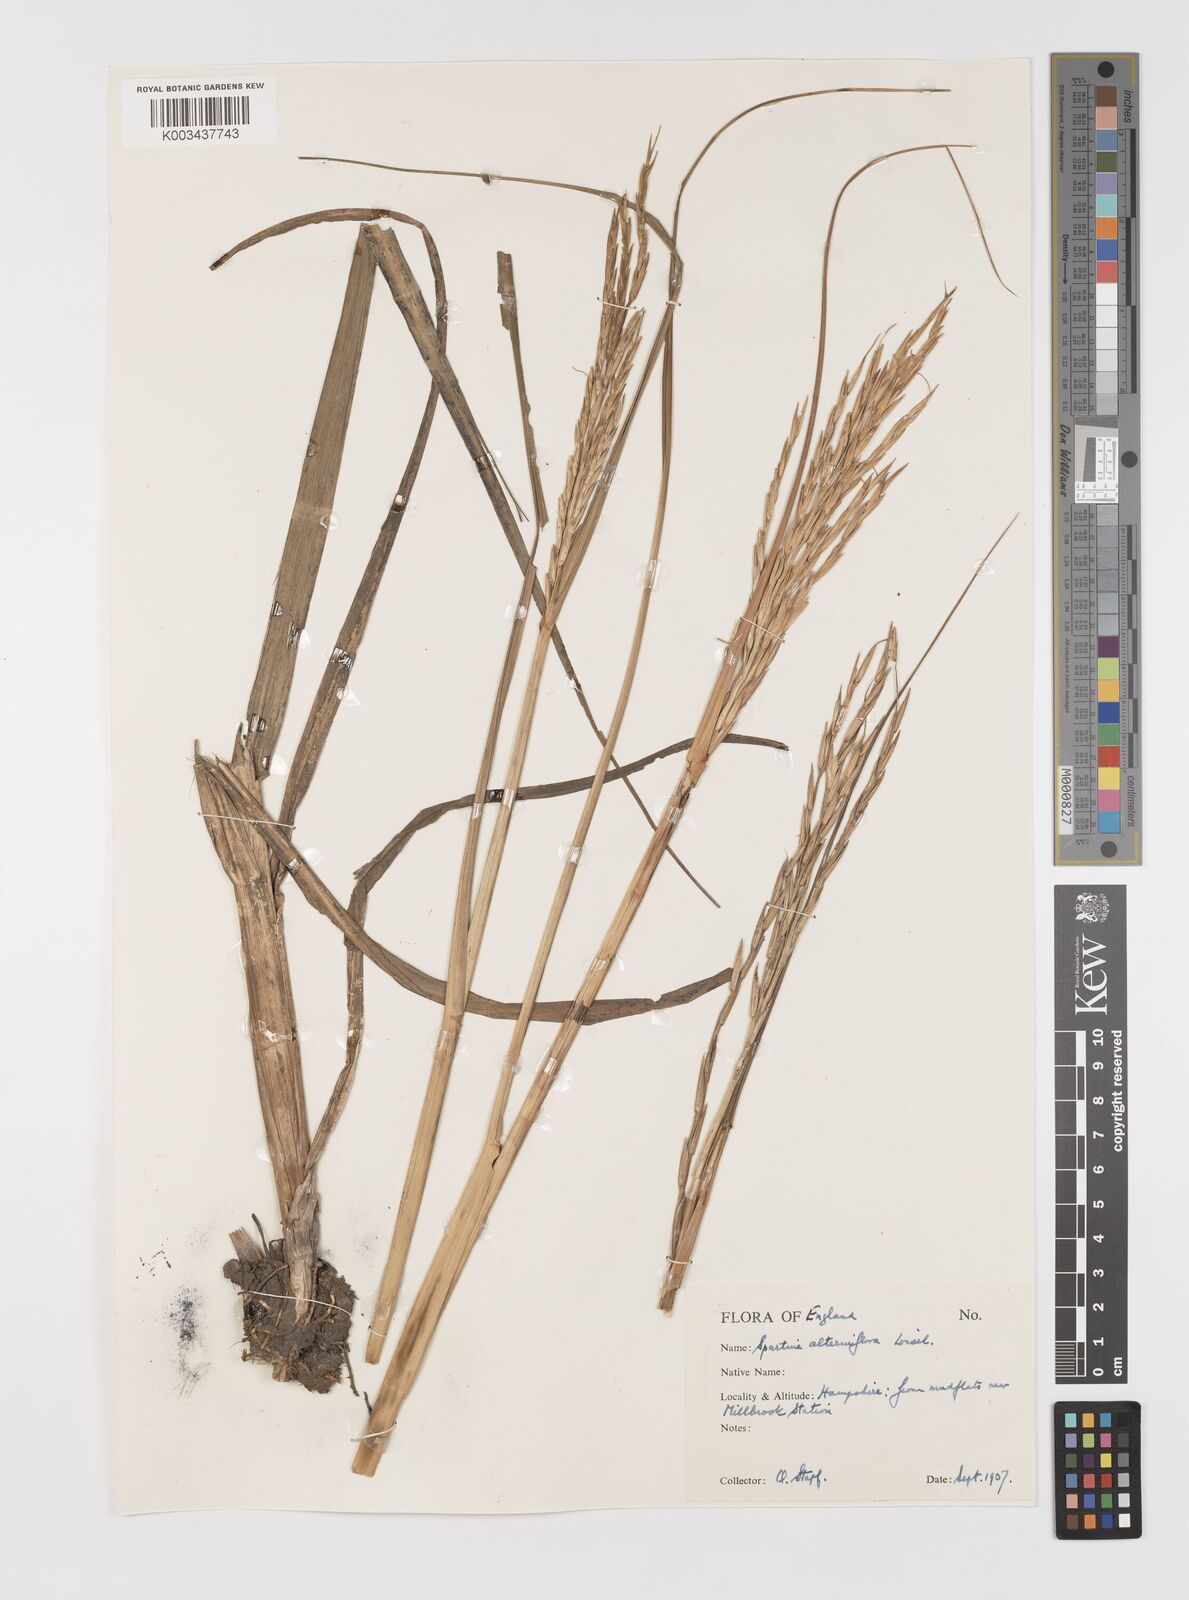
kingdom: Plantae
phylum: Tracheophyta
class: Liliopsida
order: Poales
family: Poaceae
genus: Sporobolus
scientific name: Sporobolus alterniflorus
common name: Atlantic cordgrass
